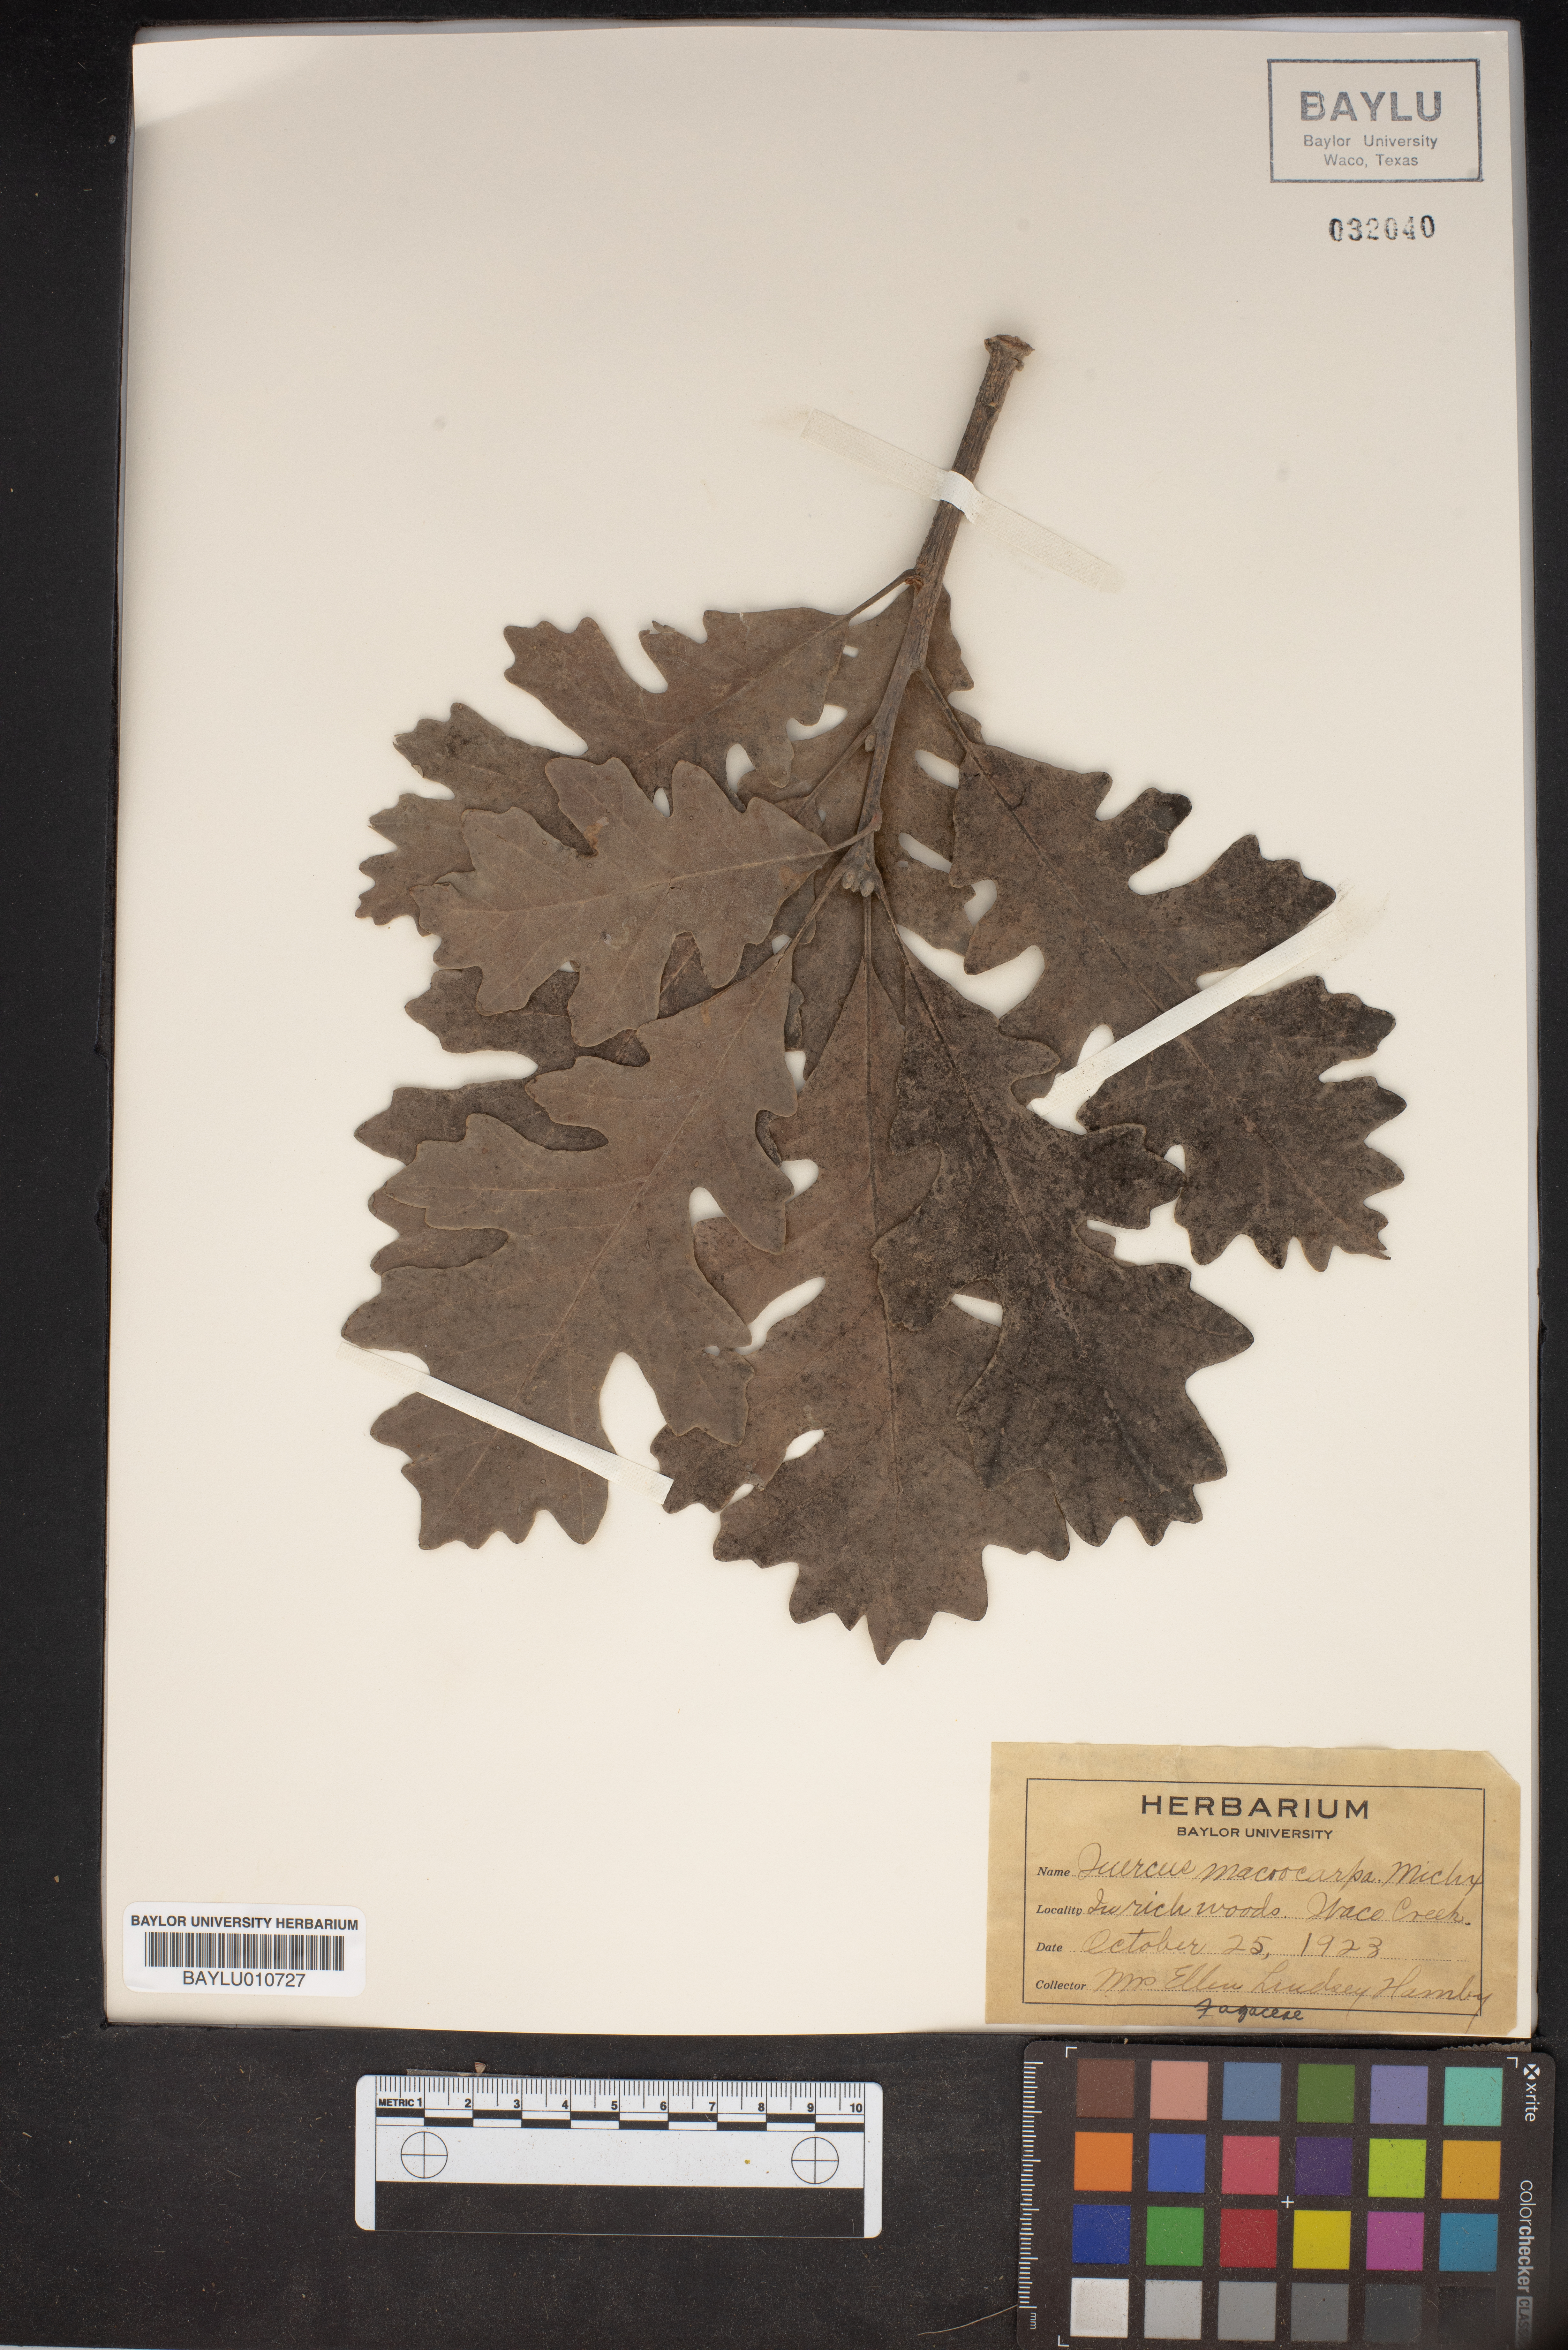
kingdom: Plantae
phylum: Tracheophyta
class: Magnoliopsida
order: Fagales
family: Fagaceae
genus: Quercus
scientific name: Quercus macrocarpa
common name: Bur oak
